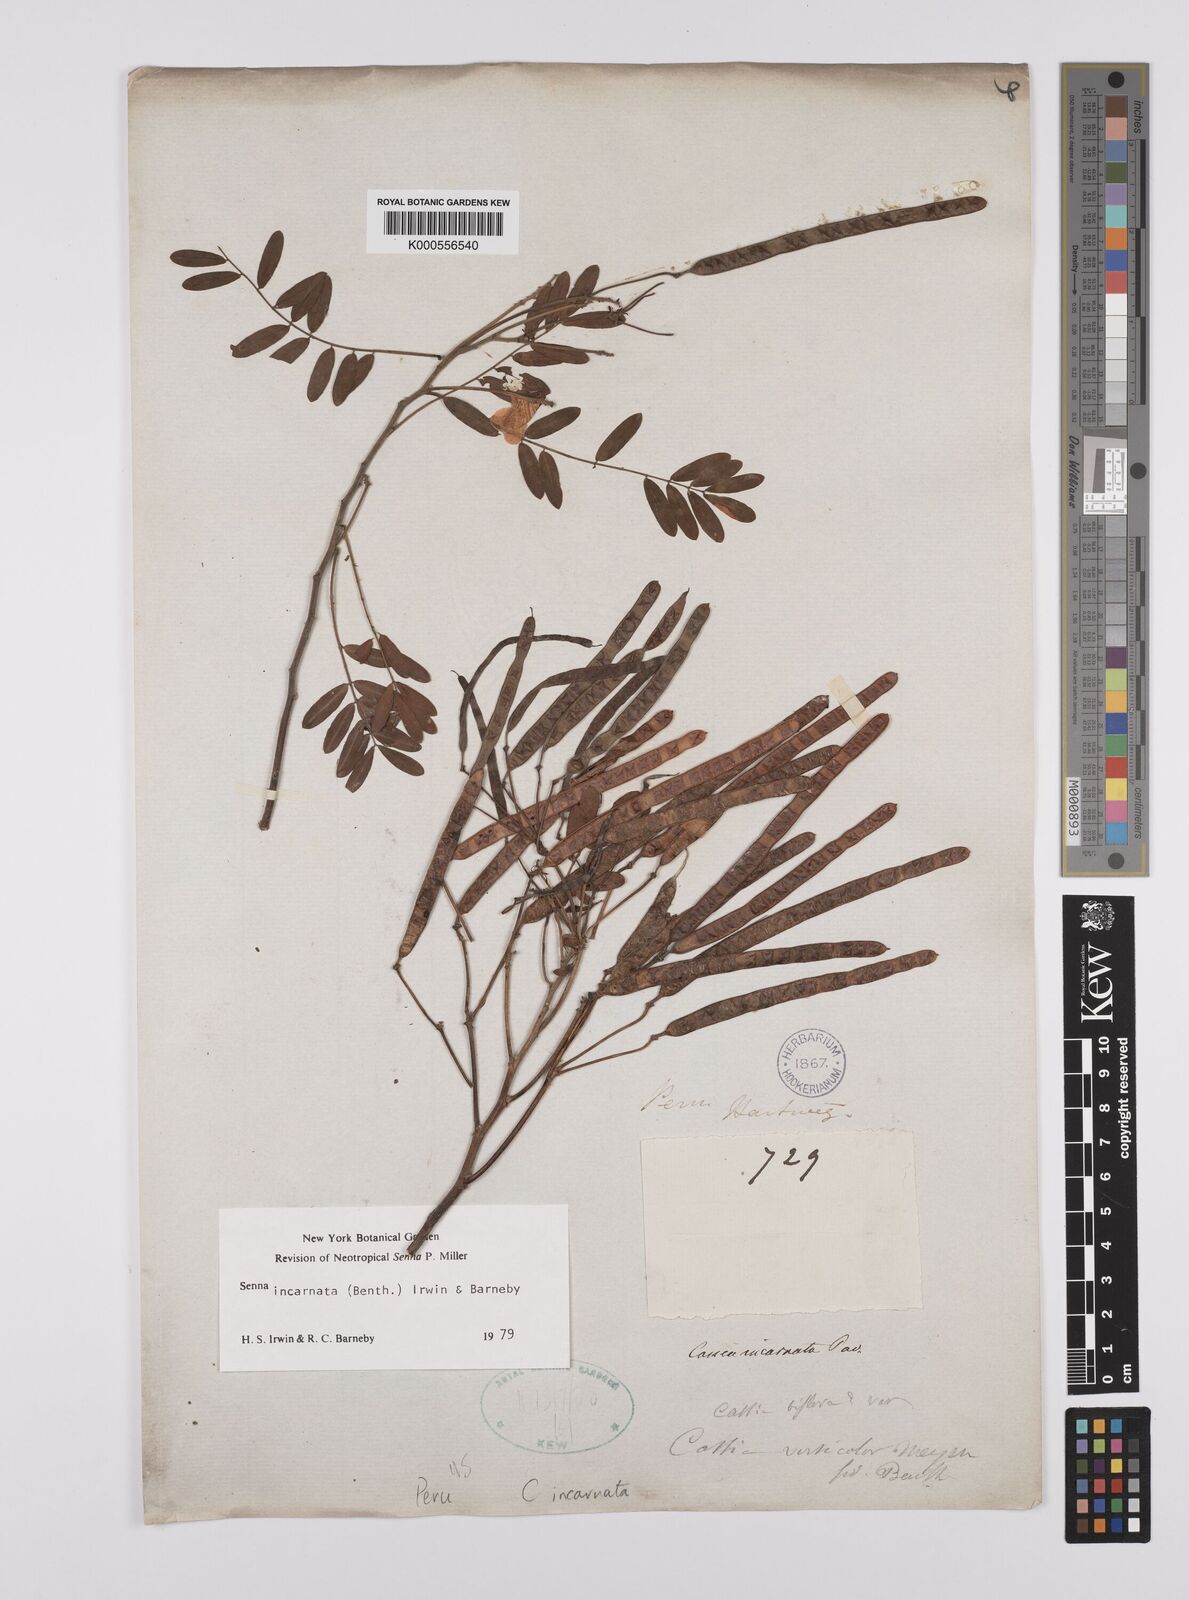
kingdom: Plantae
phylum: Tracheophyta
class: Magnoliopsida
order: Fabales
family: Fabaceae
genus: Senna
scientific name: Senna incarnata
